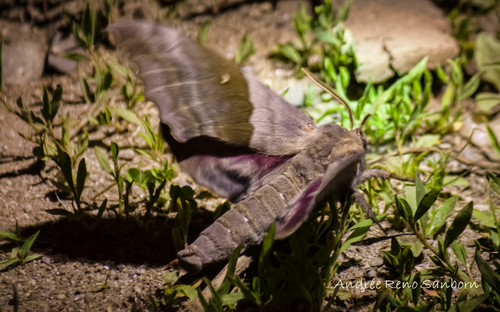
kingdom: Animalia
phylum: Arthropoda
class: Insecta
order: Lepidoptera
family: Sphingidae
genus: Pachysphinx
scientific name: Pachysphinx modesta
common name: Big poplar sphinx
